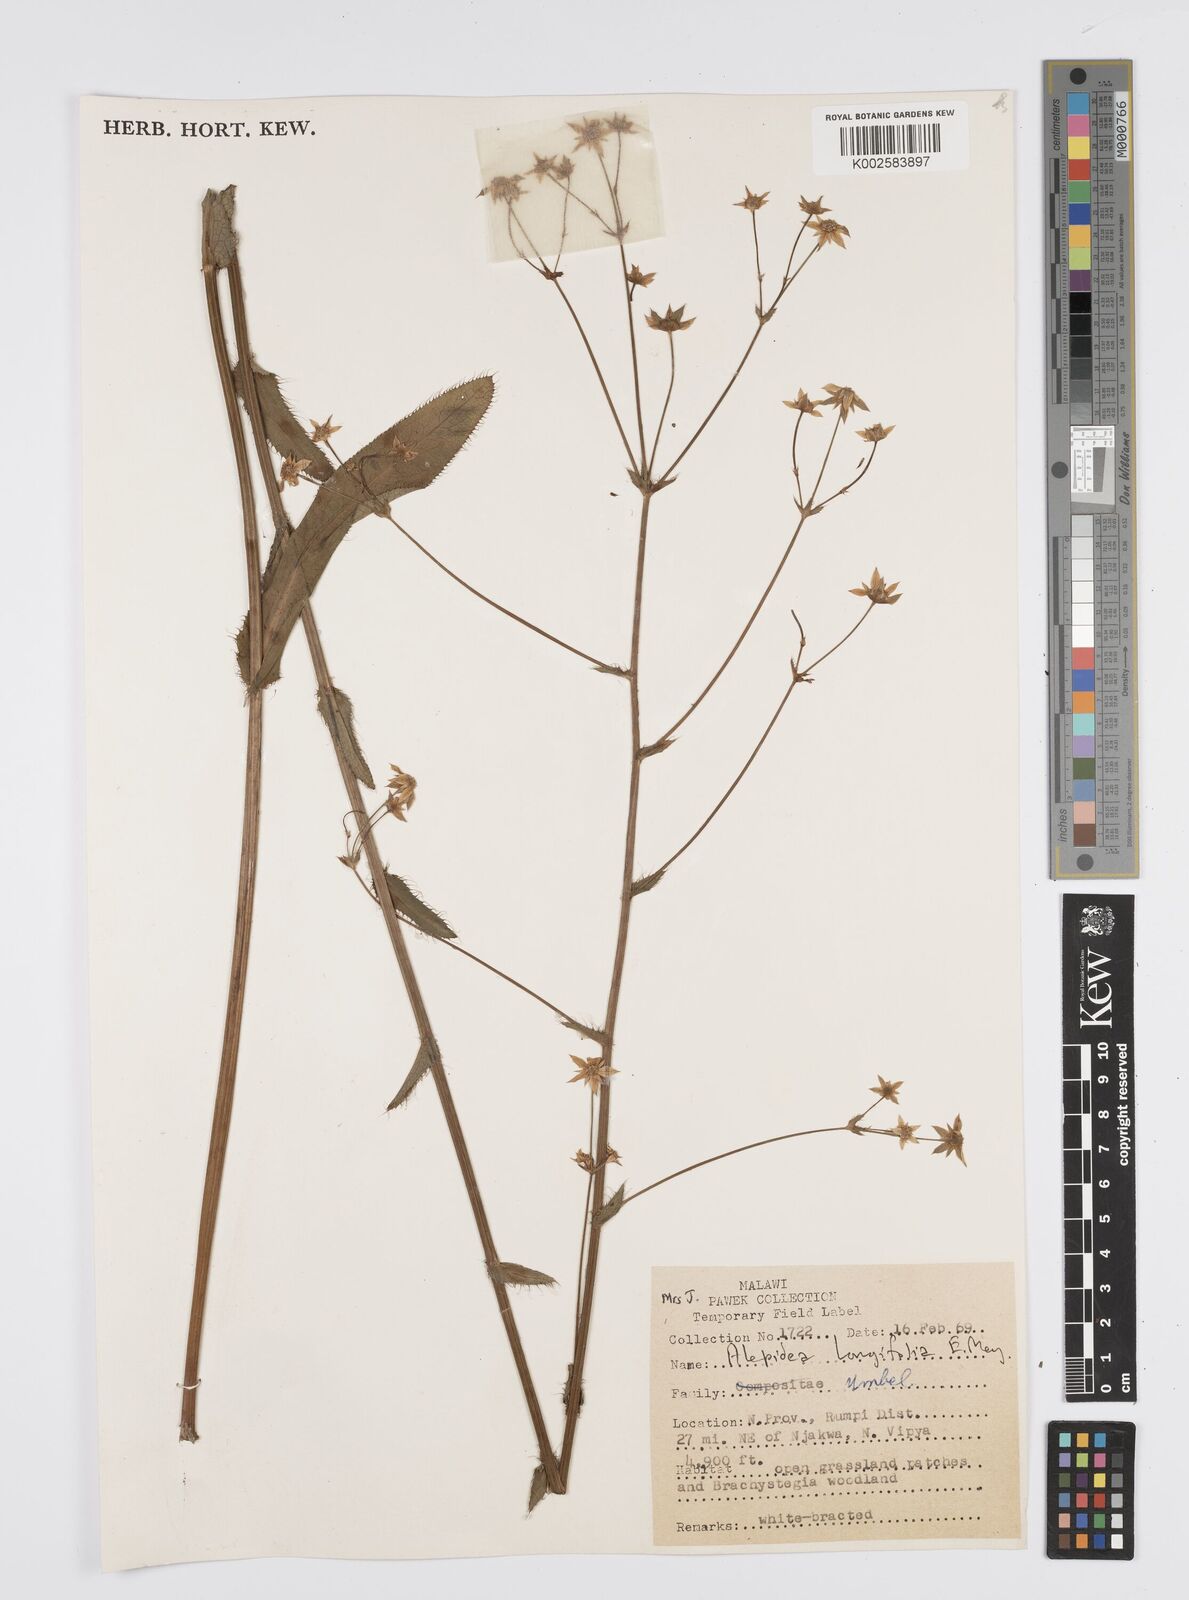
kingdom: Plantae
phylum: Tracheophyta
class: Magnoliopsida
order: Apiales
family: Apiaceae
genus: Alepidea
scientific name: Alepidea
